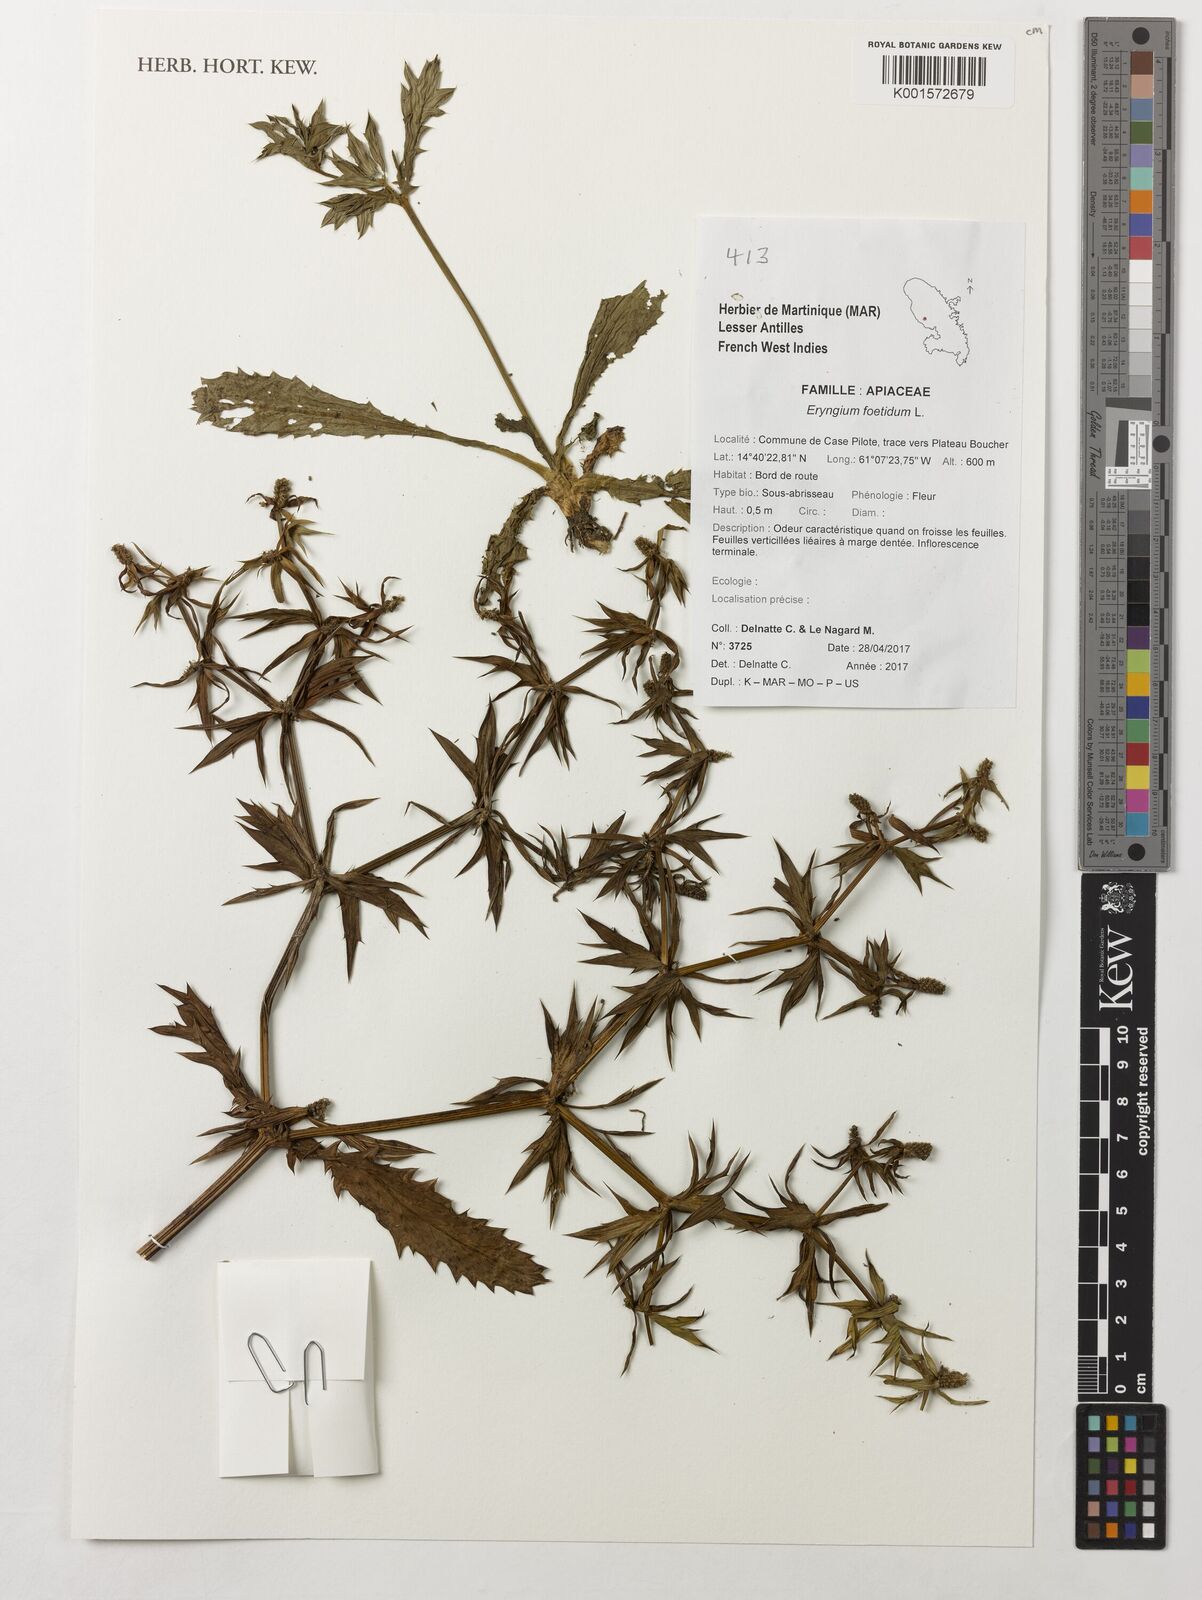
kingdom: Plantae
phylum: Tracheophyta
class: Magnoliopsida
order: Apiales
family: Apiaceae
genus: Eryngium
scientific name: Eryngium foetidum
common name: Fitweed
